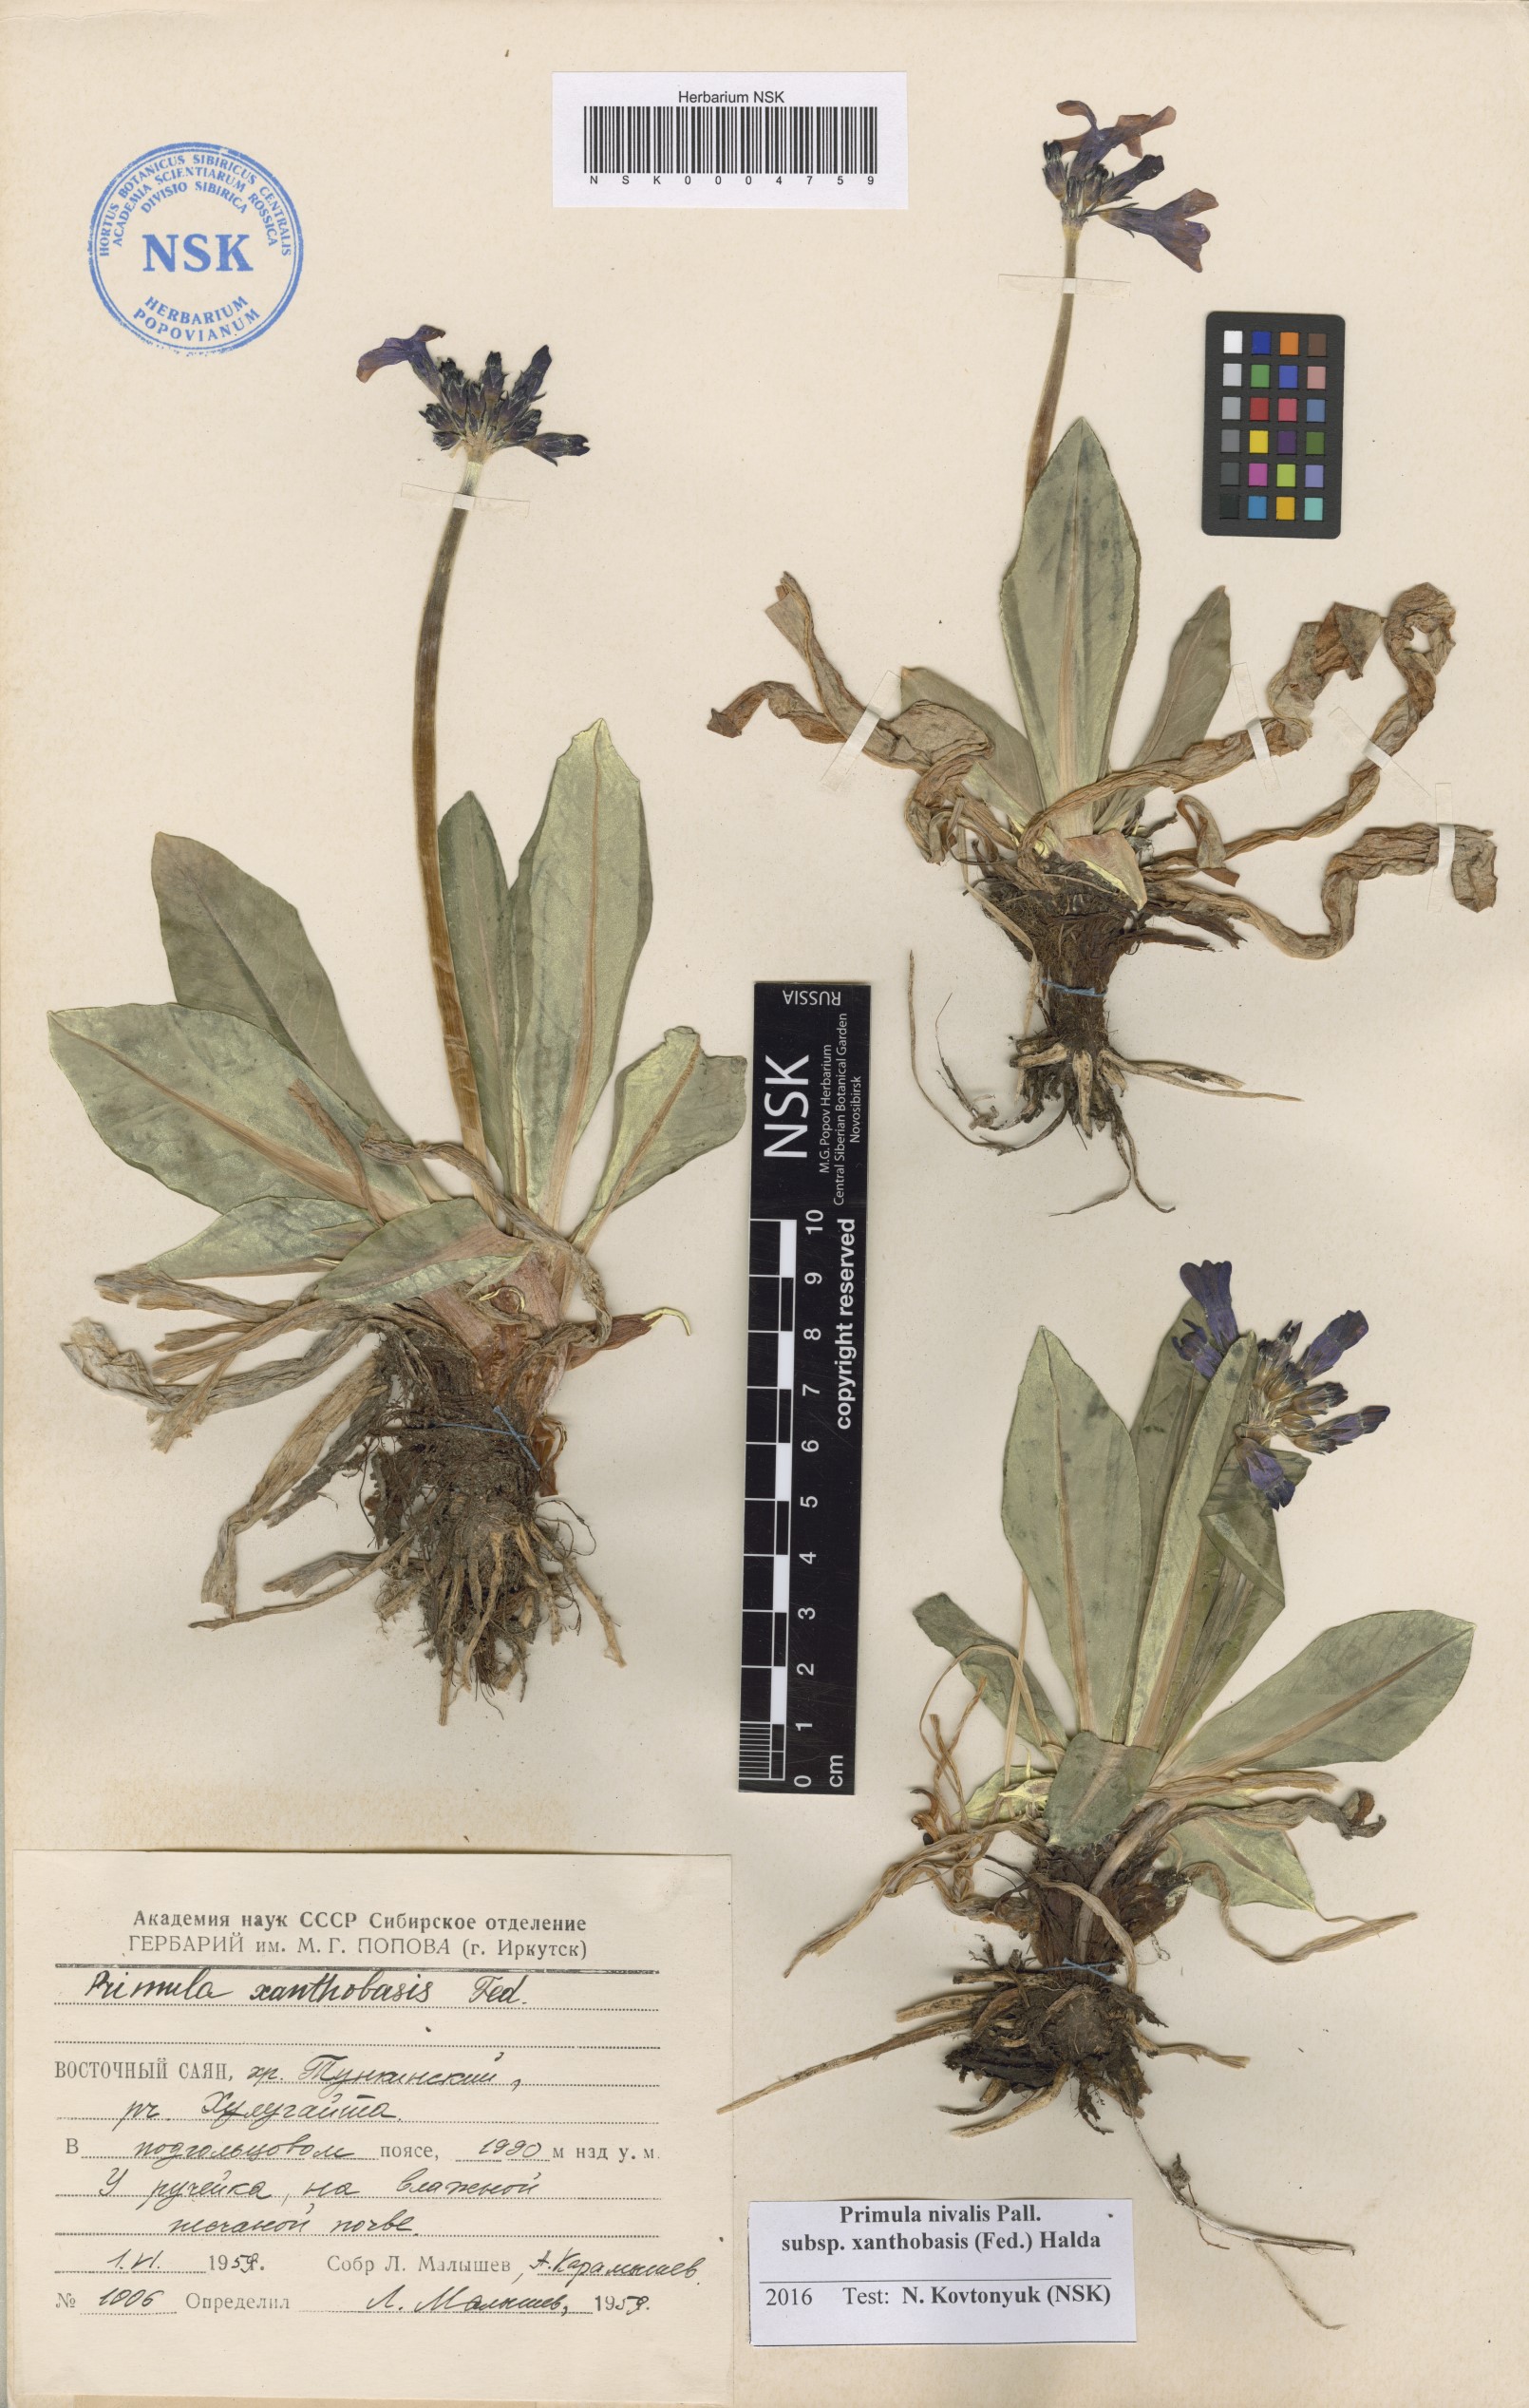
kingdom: Plantae
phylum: Tracheophyta
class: Magnoliopsida
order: Ericales
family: Primulaceae
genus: Primula
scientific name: Primula nivalis
